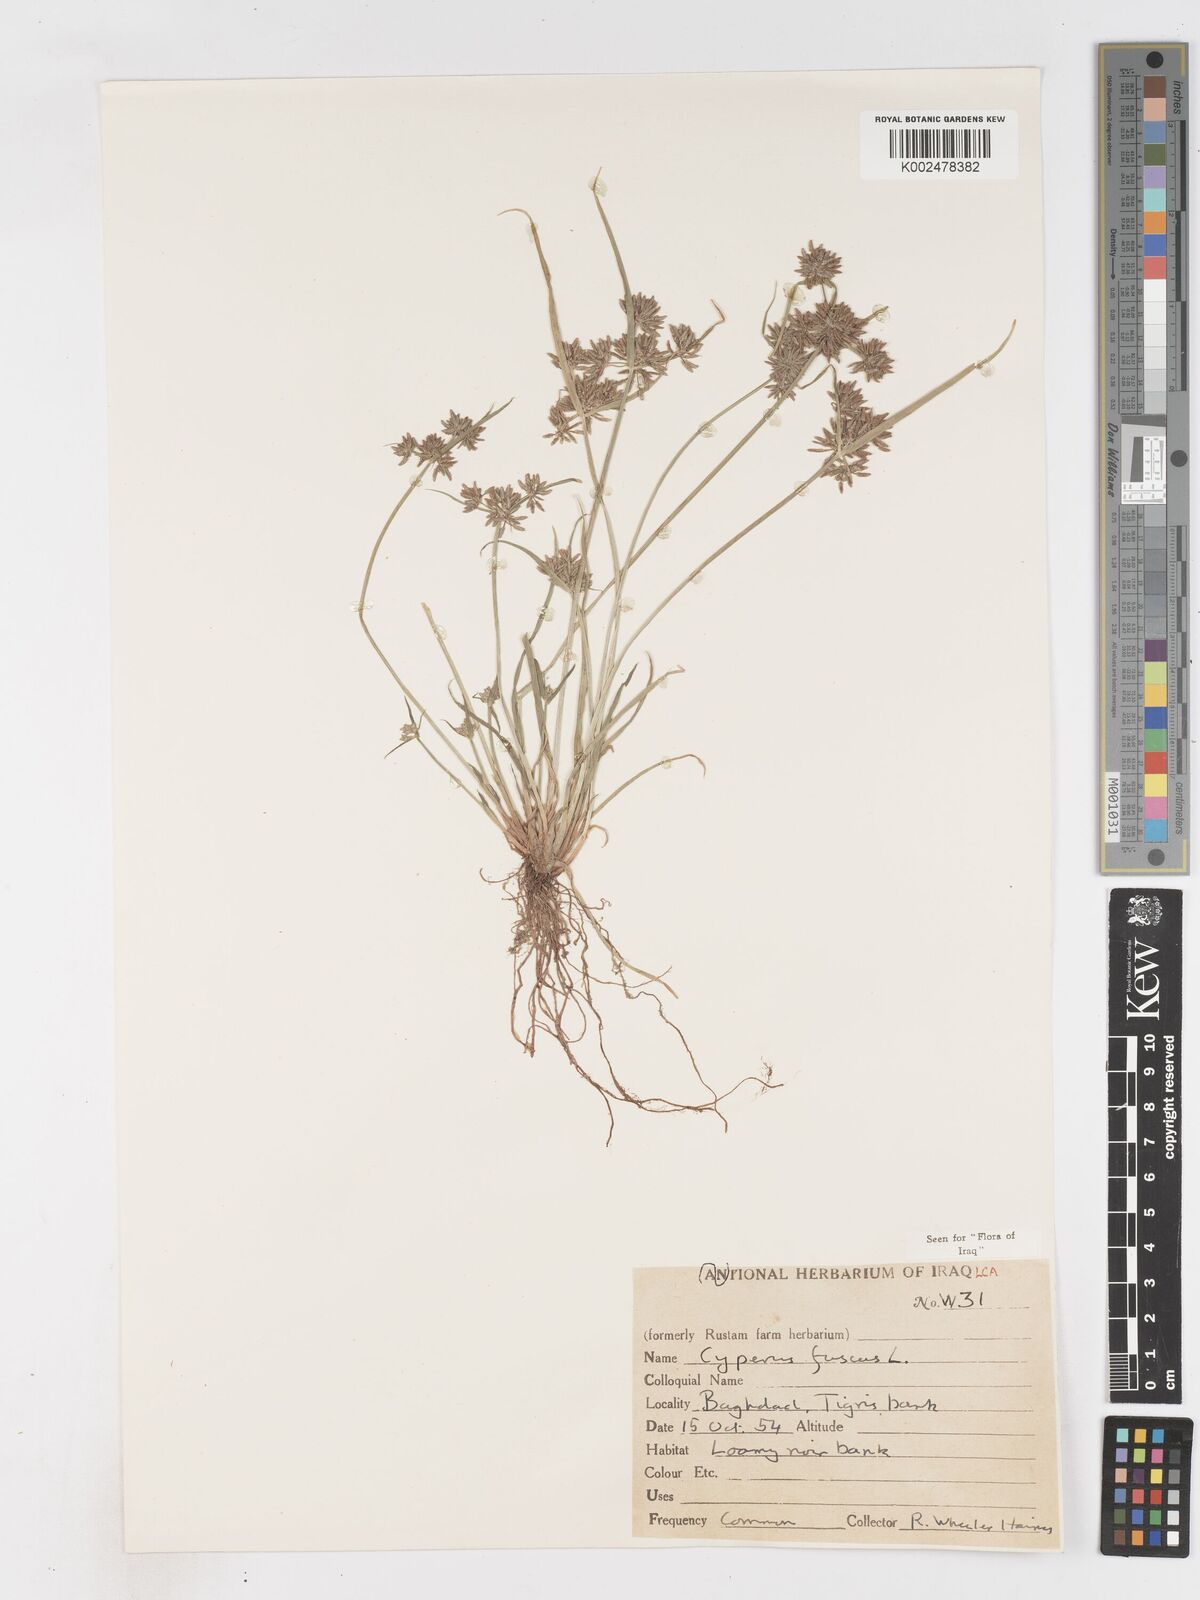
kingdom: Plantae
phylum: Tracheophyta
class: Liliopsida
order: Poales
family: Cyperaceae
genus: Cyperus
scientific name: Cyperus fuscus
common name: Brown galingale
